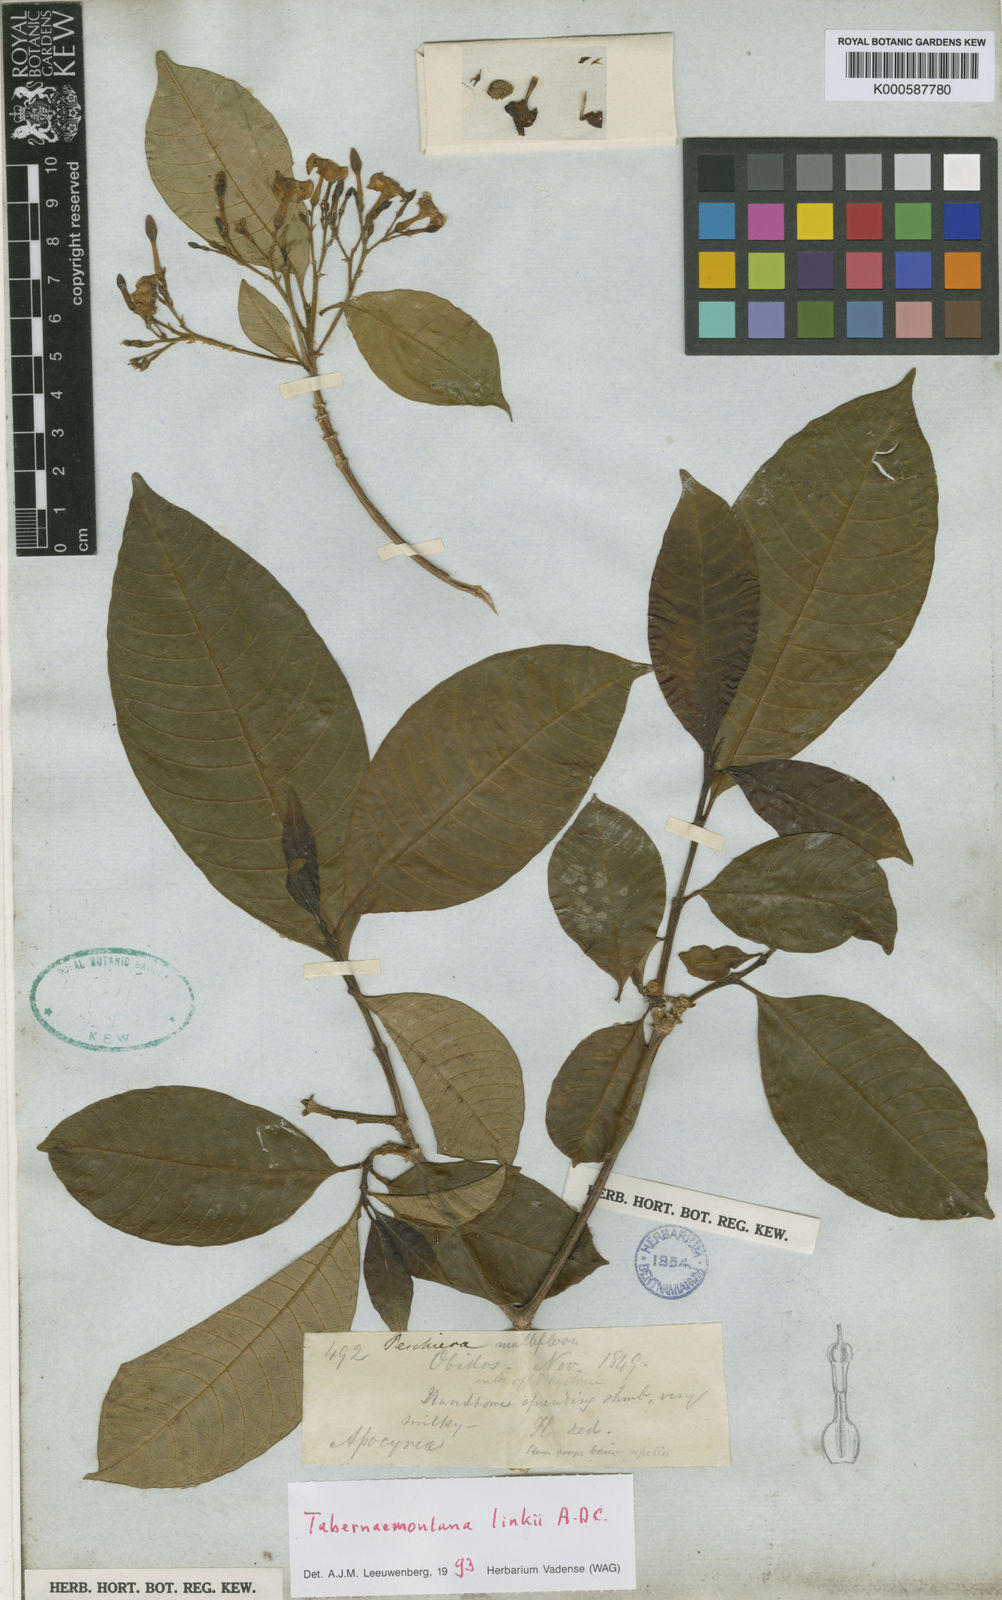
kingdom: Plantae
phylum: Tracheophyta
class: Magnoliopsida
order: Gentianales
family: Apocynaceae
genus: Tabernaemontana
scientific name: Tabernaemontana linkii
